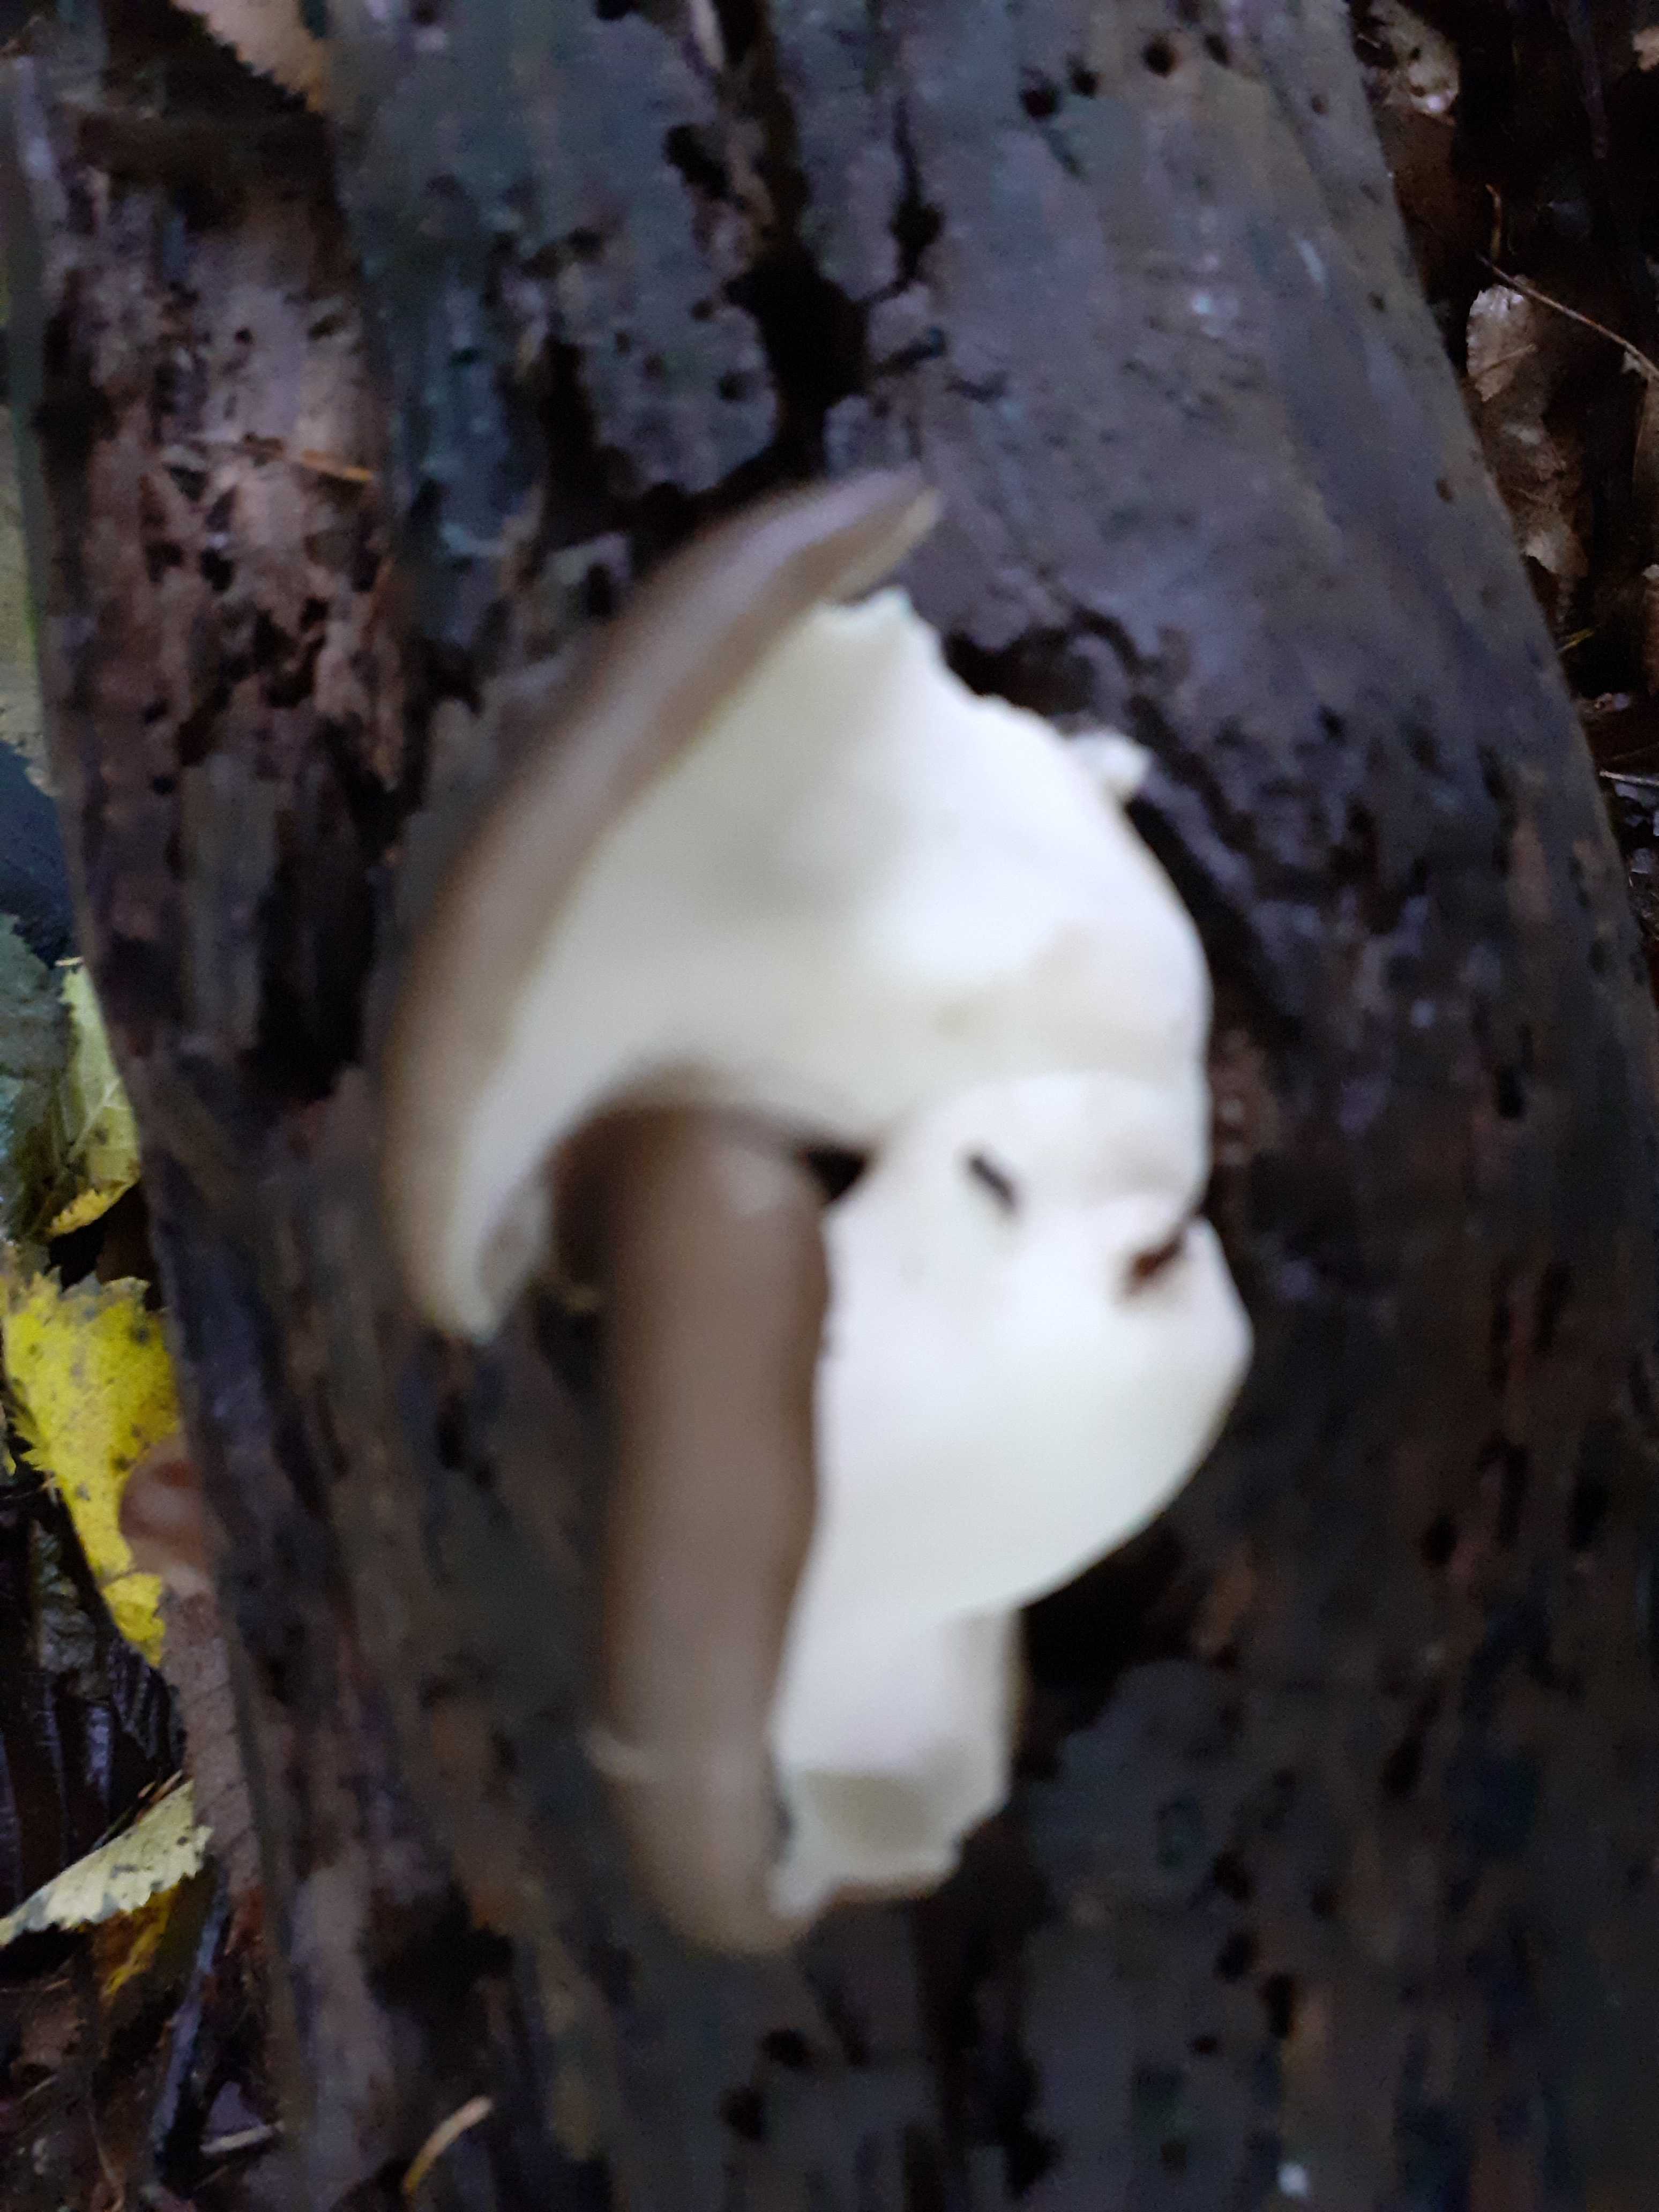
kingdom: Fungi
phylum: Basidiomycota
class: Agaricomycetes
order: Polyporales
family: Polyporaceae
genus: Picipes
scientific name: Picipes melanopus
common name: sortfodet stilkporesvamp
